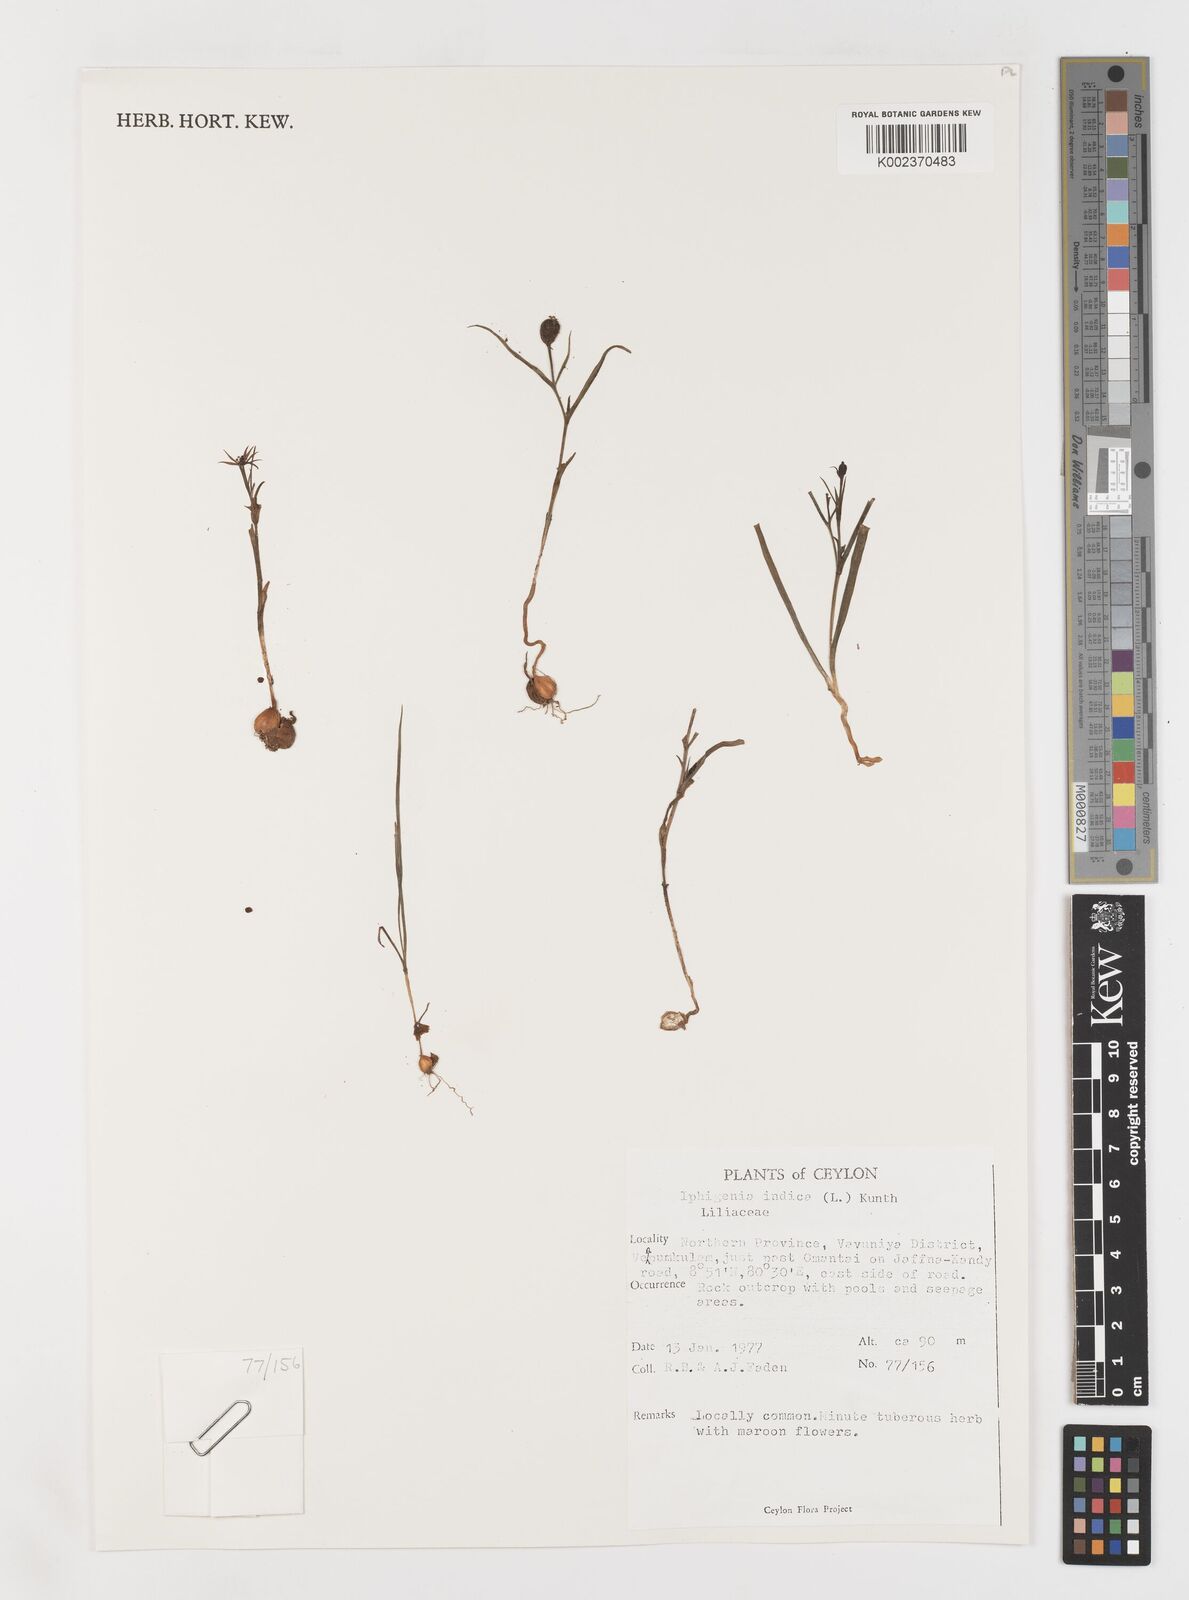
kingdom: Plantae
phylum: Tracheophyta
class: Liliopsida
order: Liliales
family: Colchicaceae
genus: Iphigenia
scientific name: Iphigenia indica
